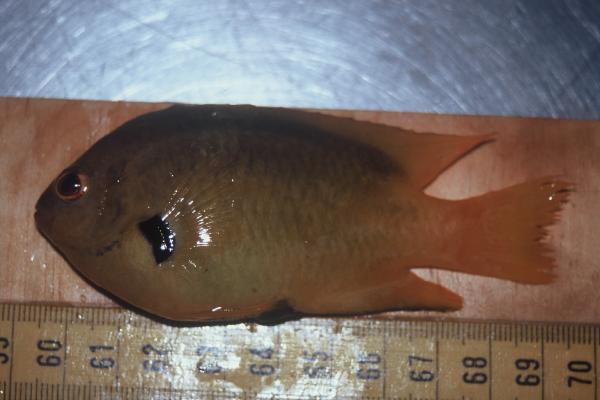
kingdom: Animalia
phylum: Chordata
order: Perciformes
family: Pomacentridae
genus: Pomacentrus
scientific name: Pomacentrus sulfureus
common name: Sulfur damsel
